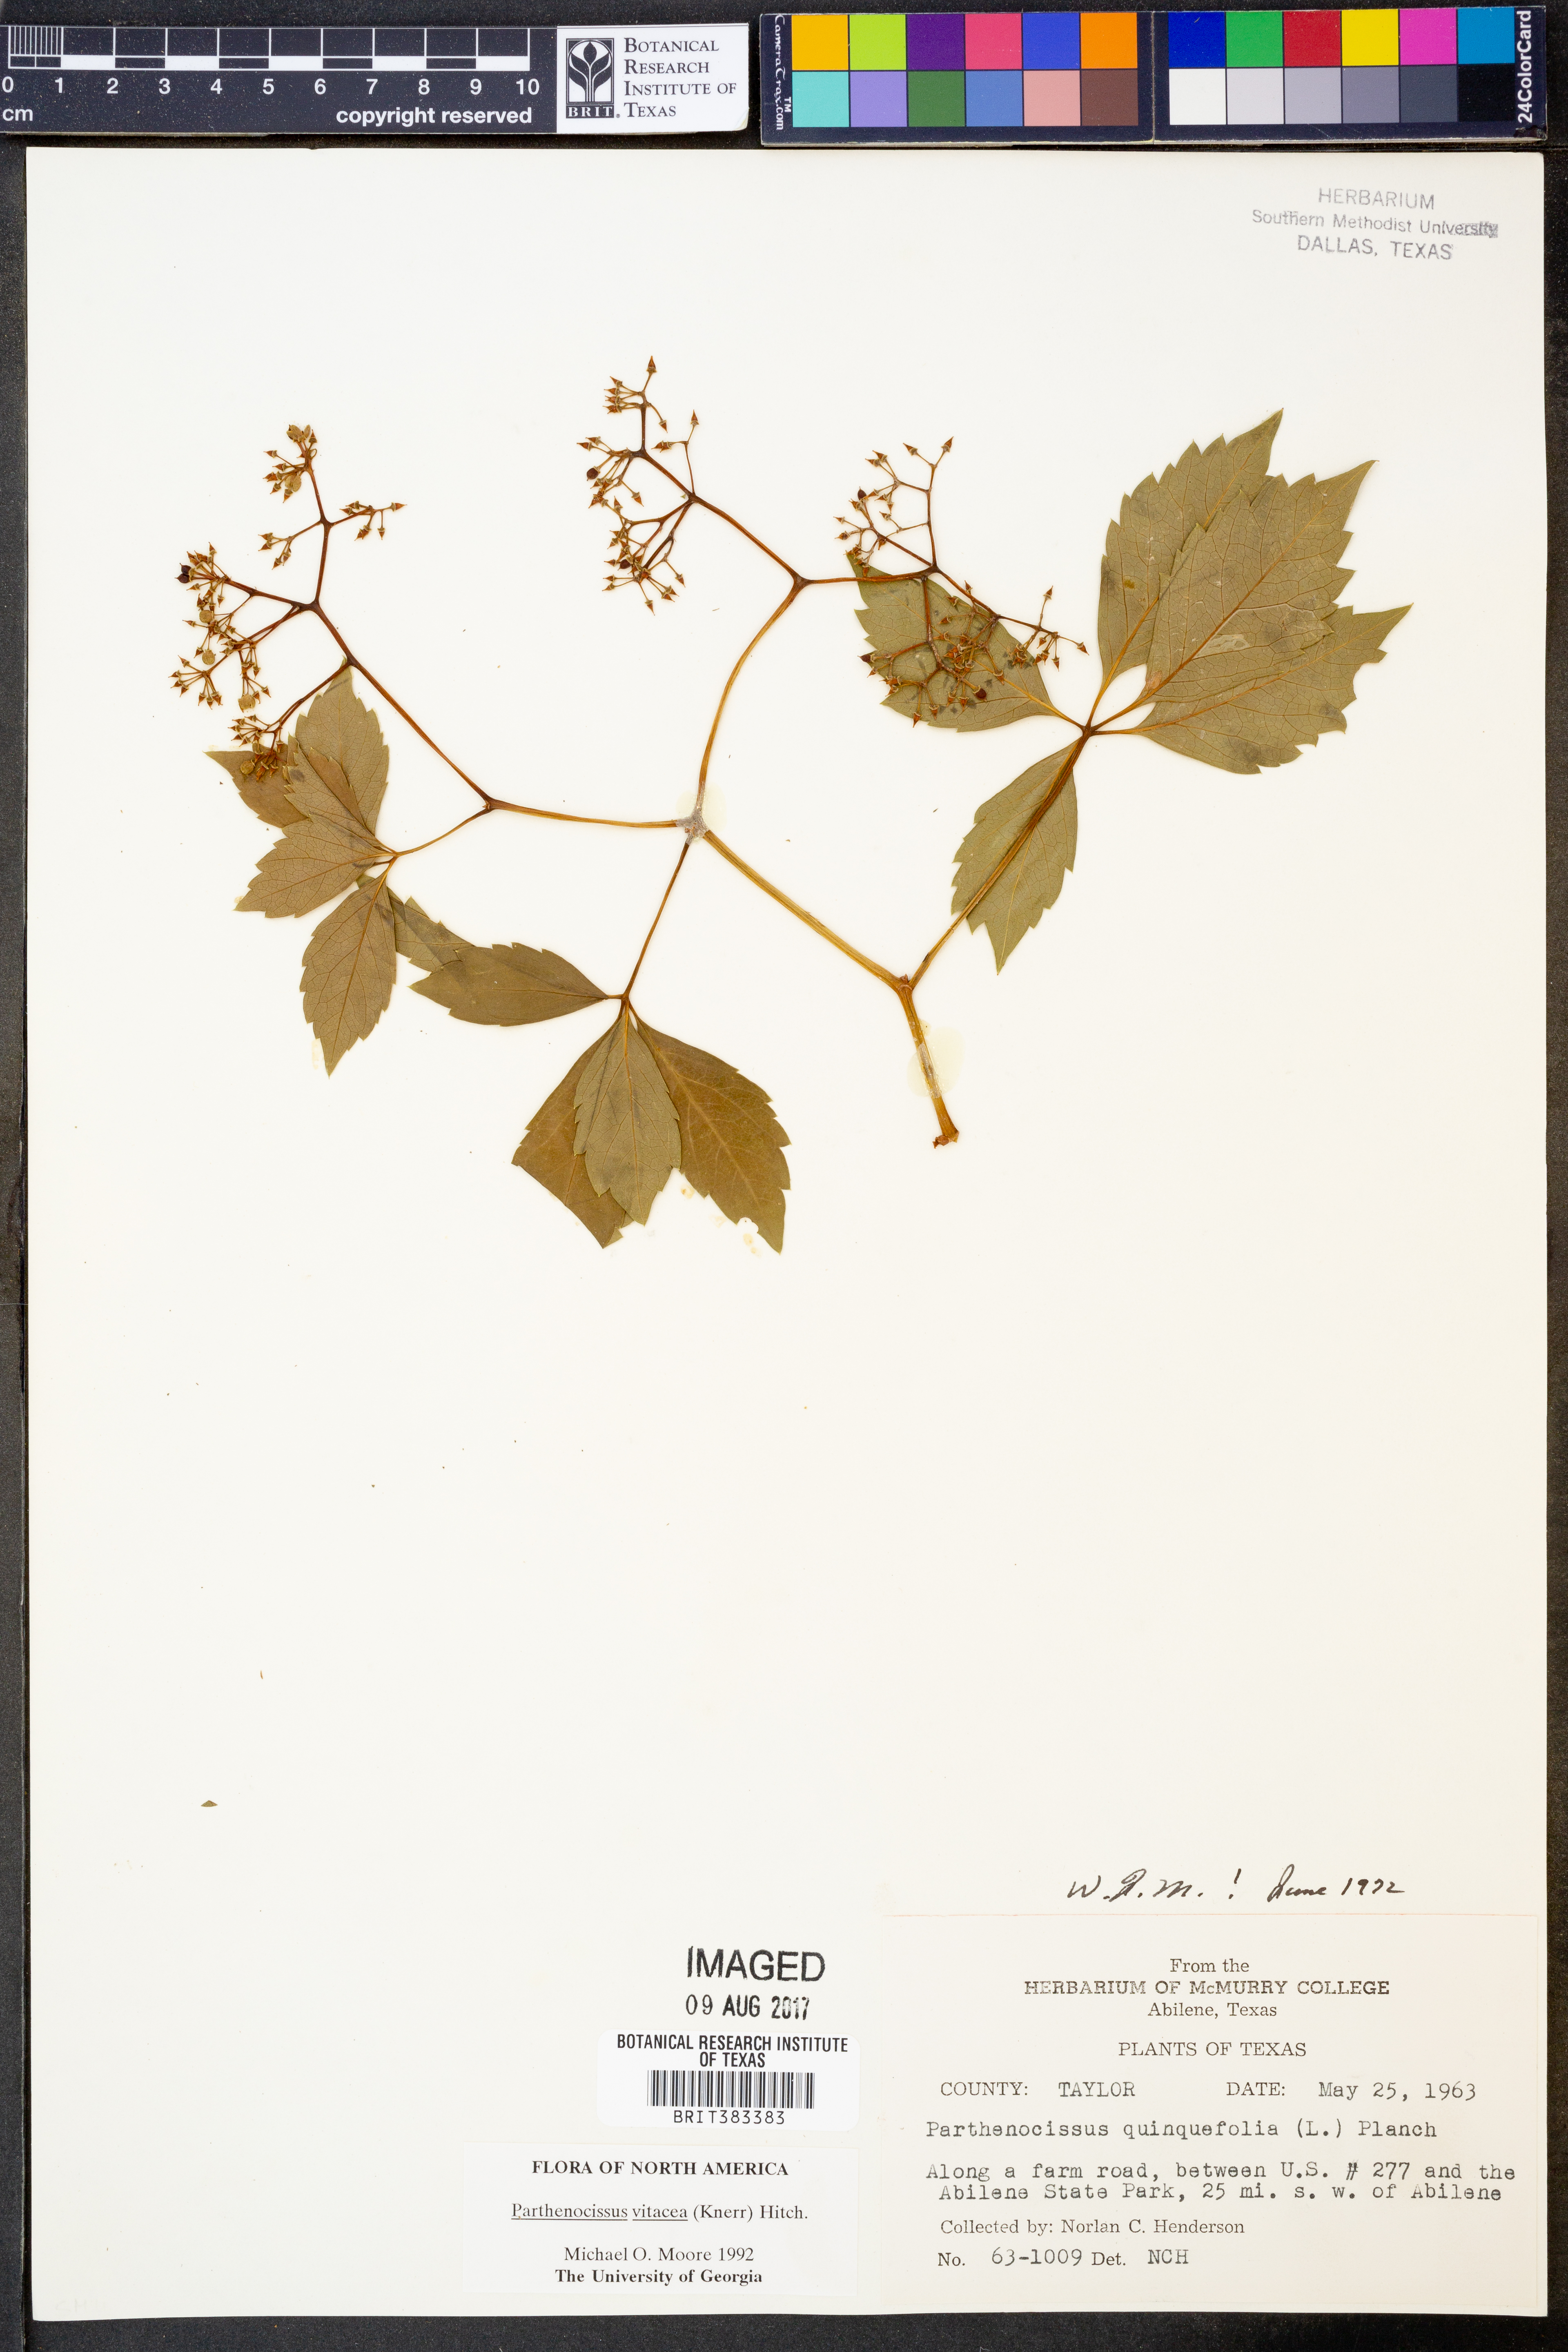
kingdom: Plantae
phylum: Tracheophyta
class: Magnoliopsida
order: Vitales
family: Vitaceae
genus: Parthenocissus
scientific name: Parthenocissus inserta
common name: False virginia-creeper
